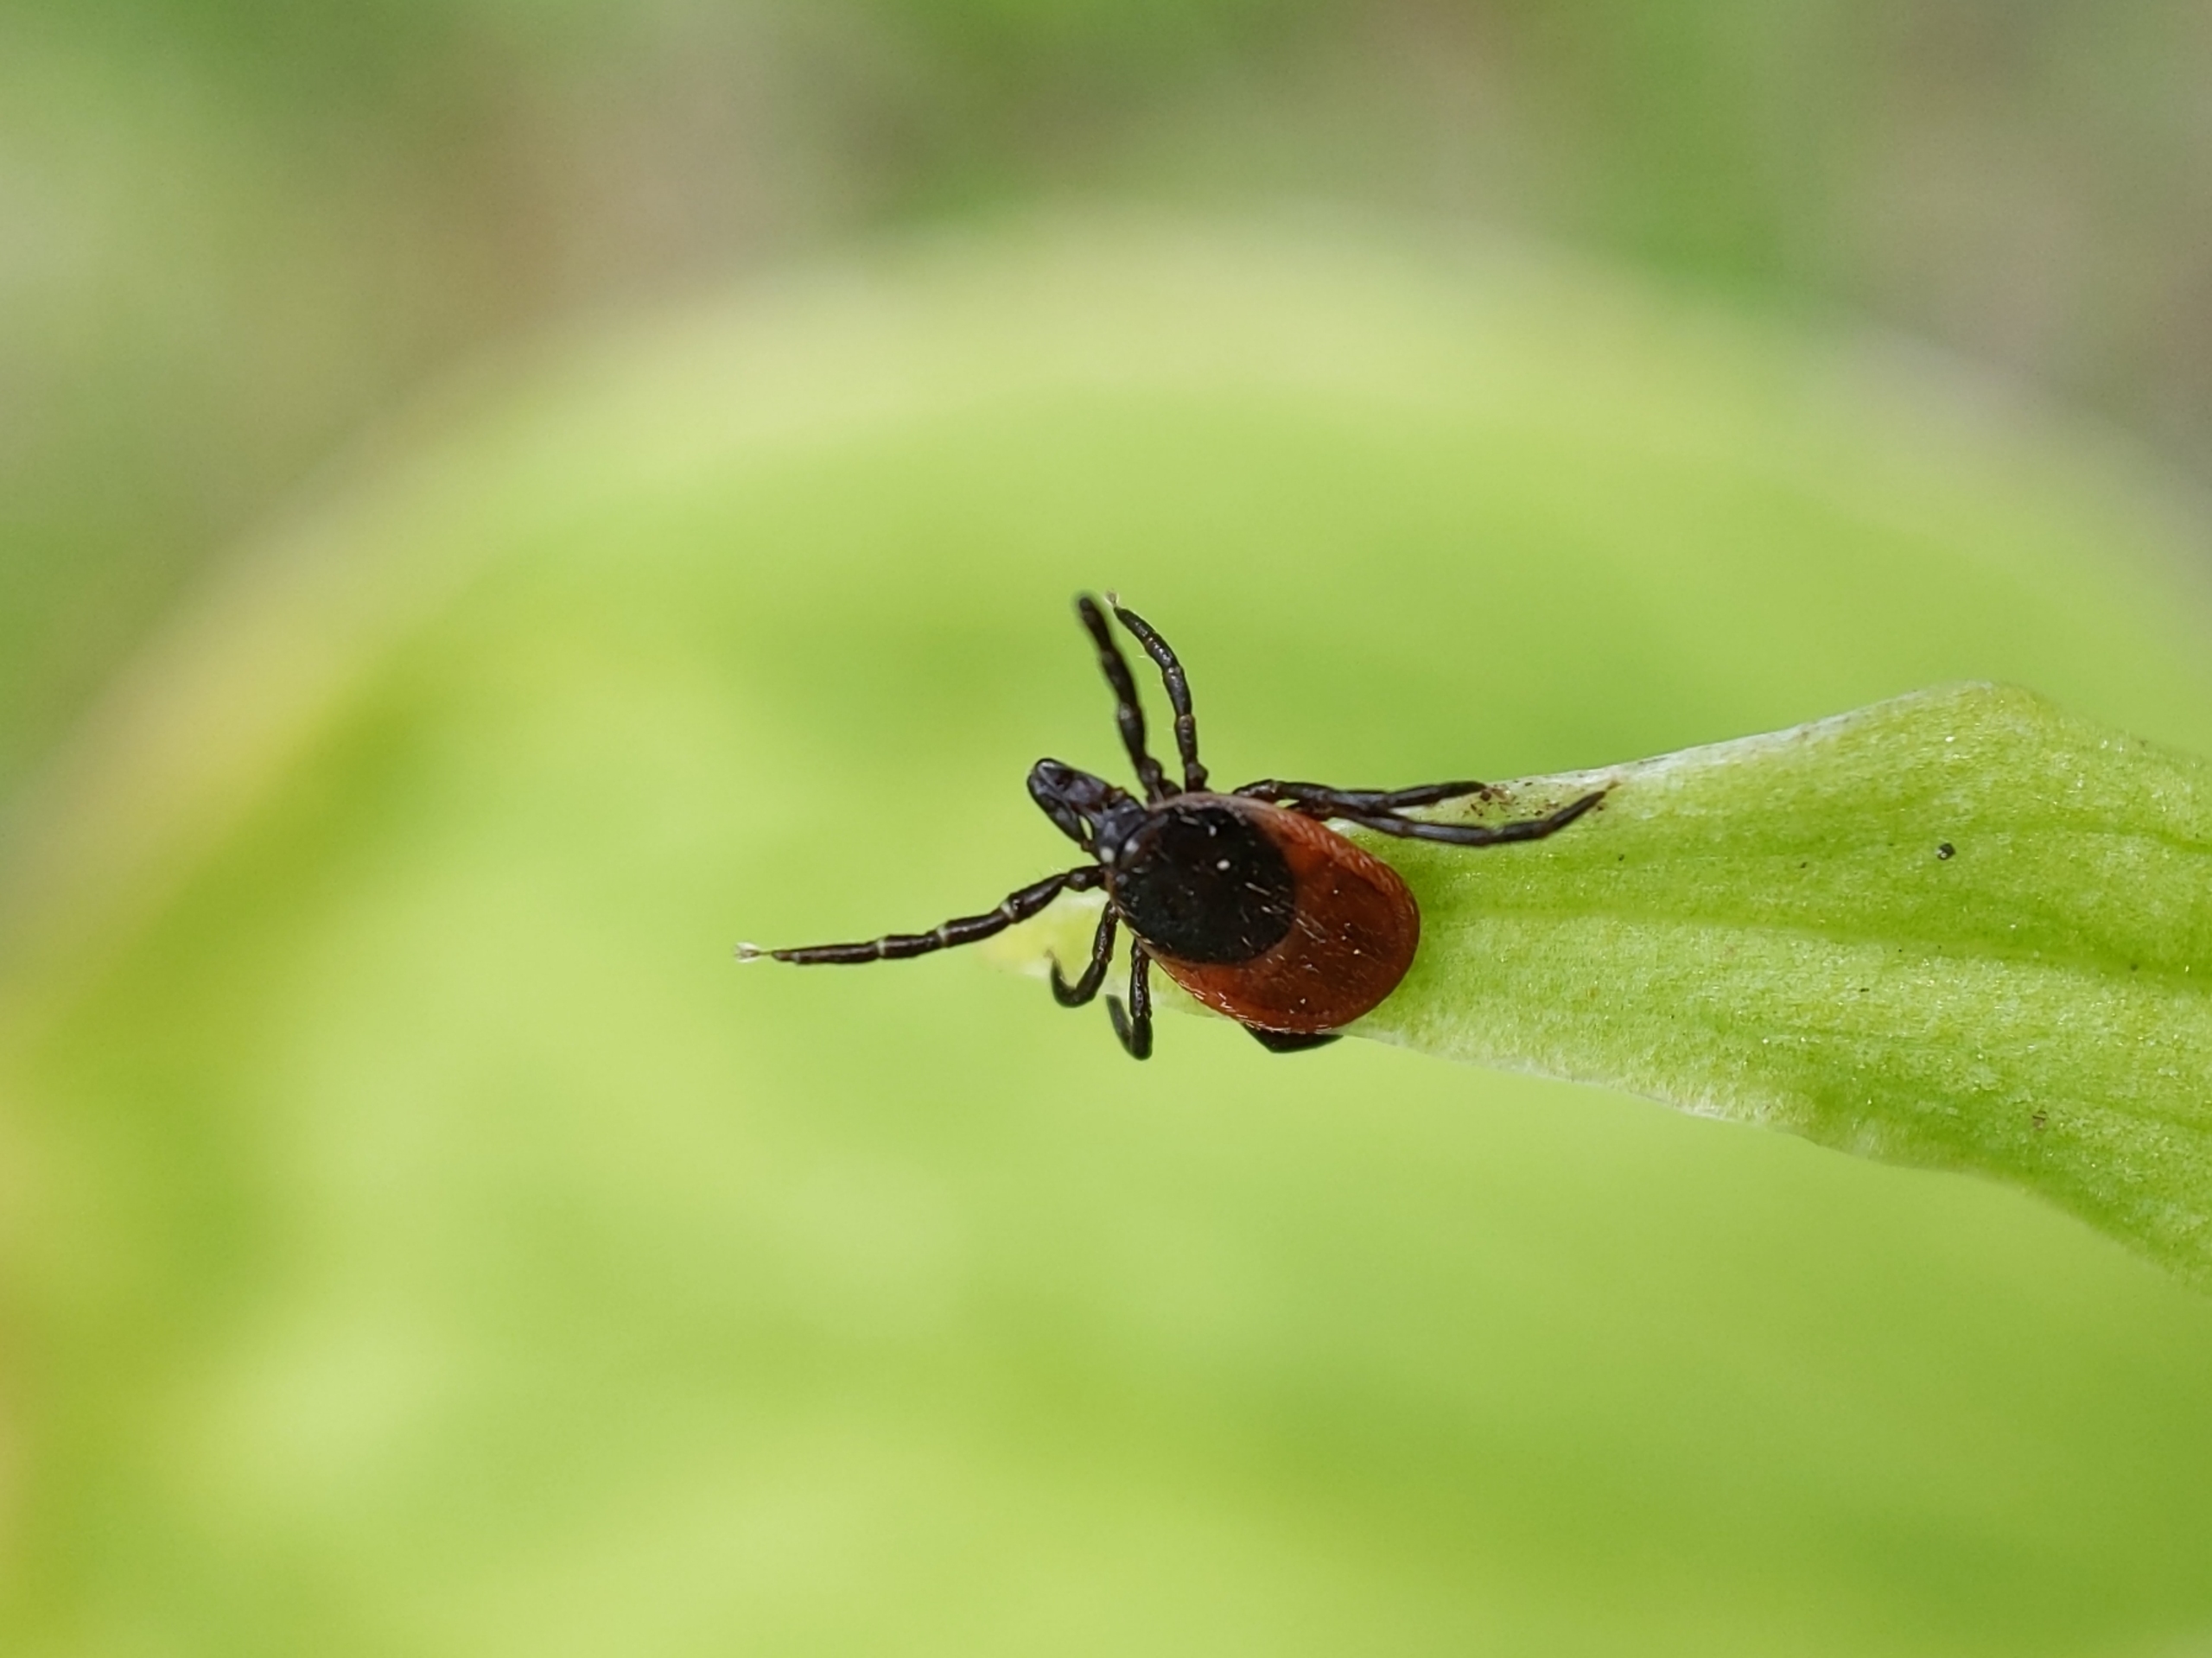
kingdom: Animalia
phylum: Arthropoda
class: Arachnida
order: Ixodida
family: Ixodidae
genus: Ixodes
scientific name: Ixodes ricinus
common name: Skovflåt
